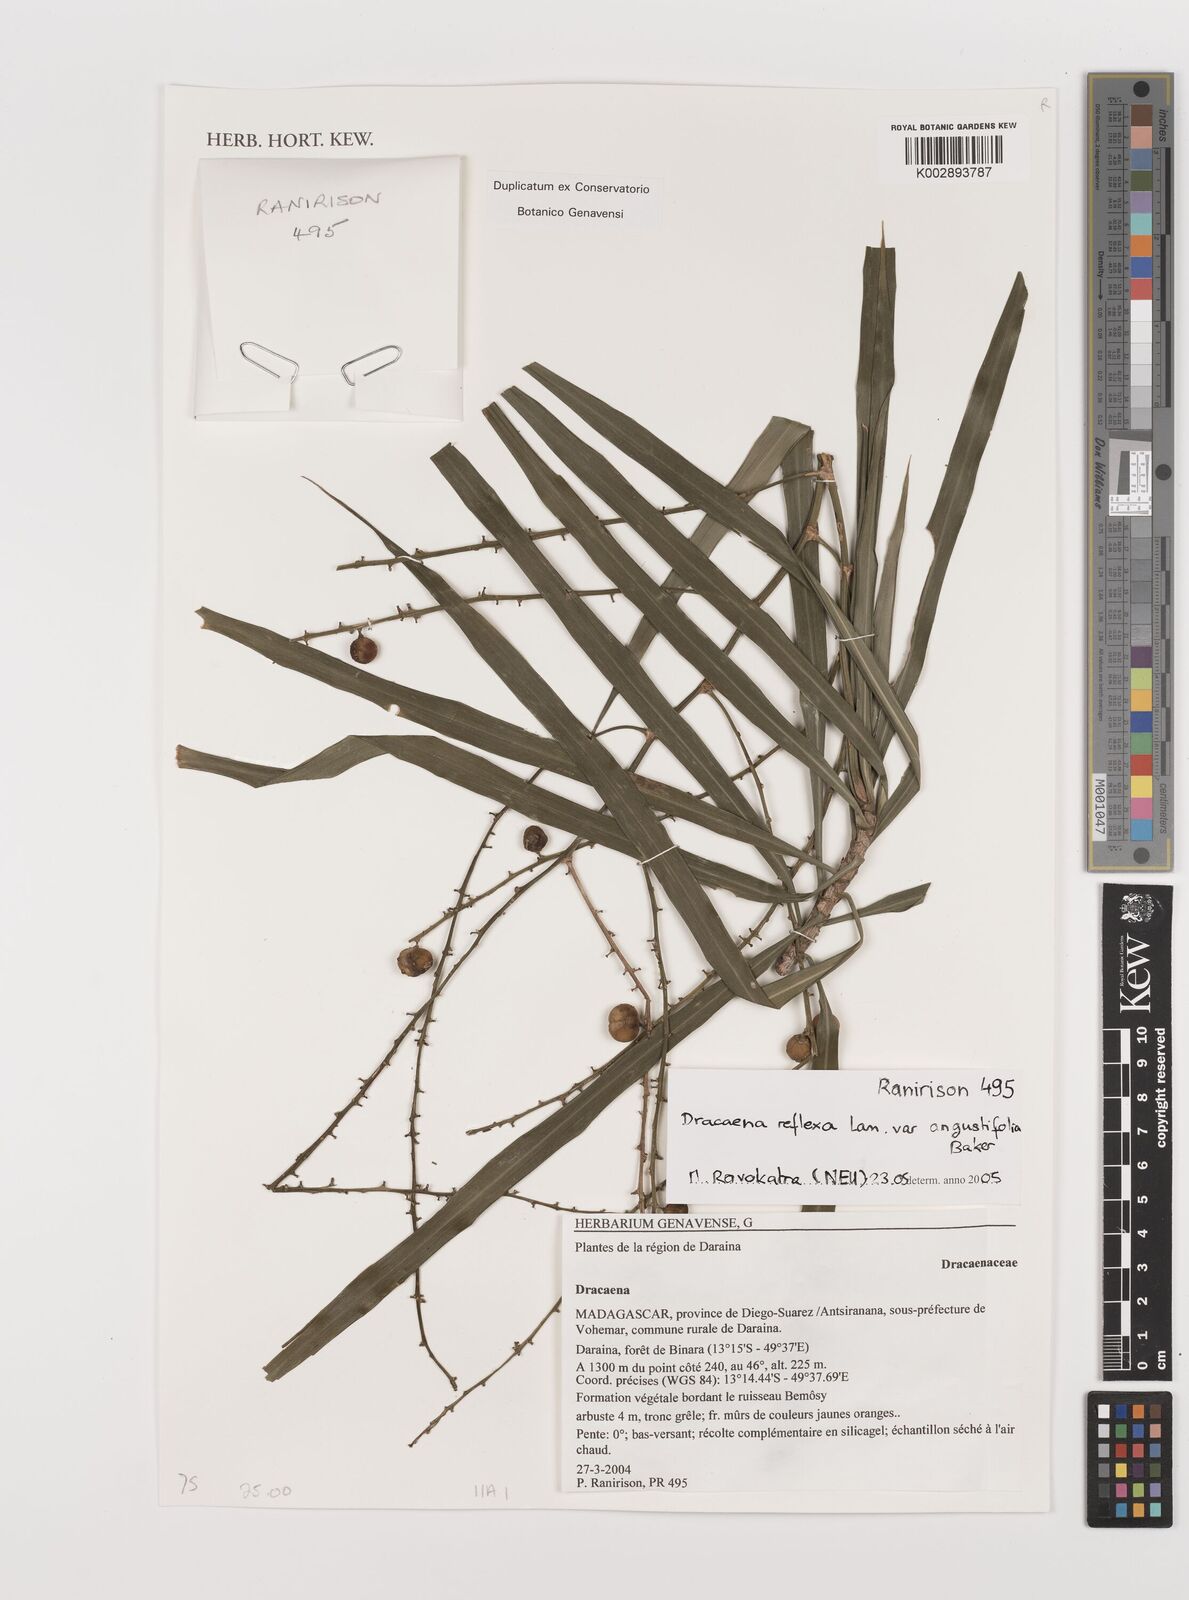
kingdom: Plantae
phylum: Tracheophyta
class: Liliopsida
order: Asparagales
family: Asparagaceae
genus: Dracaena
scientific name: Dracaena reflexa
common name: Song-of-india
